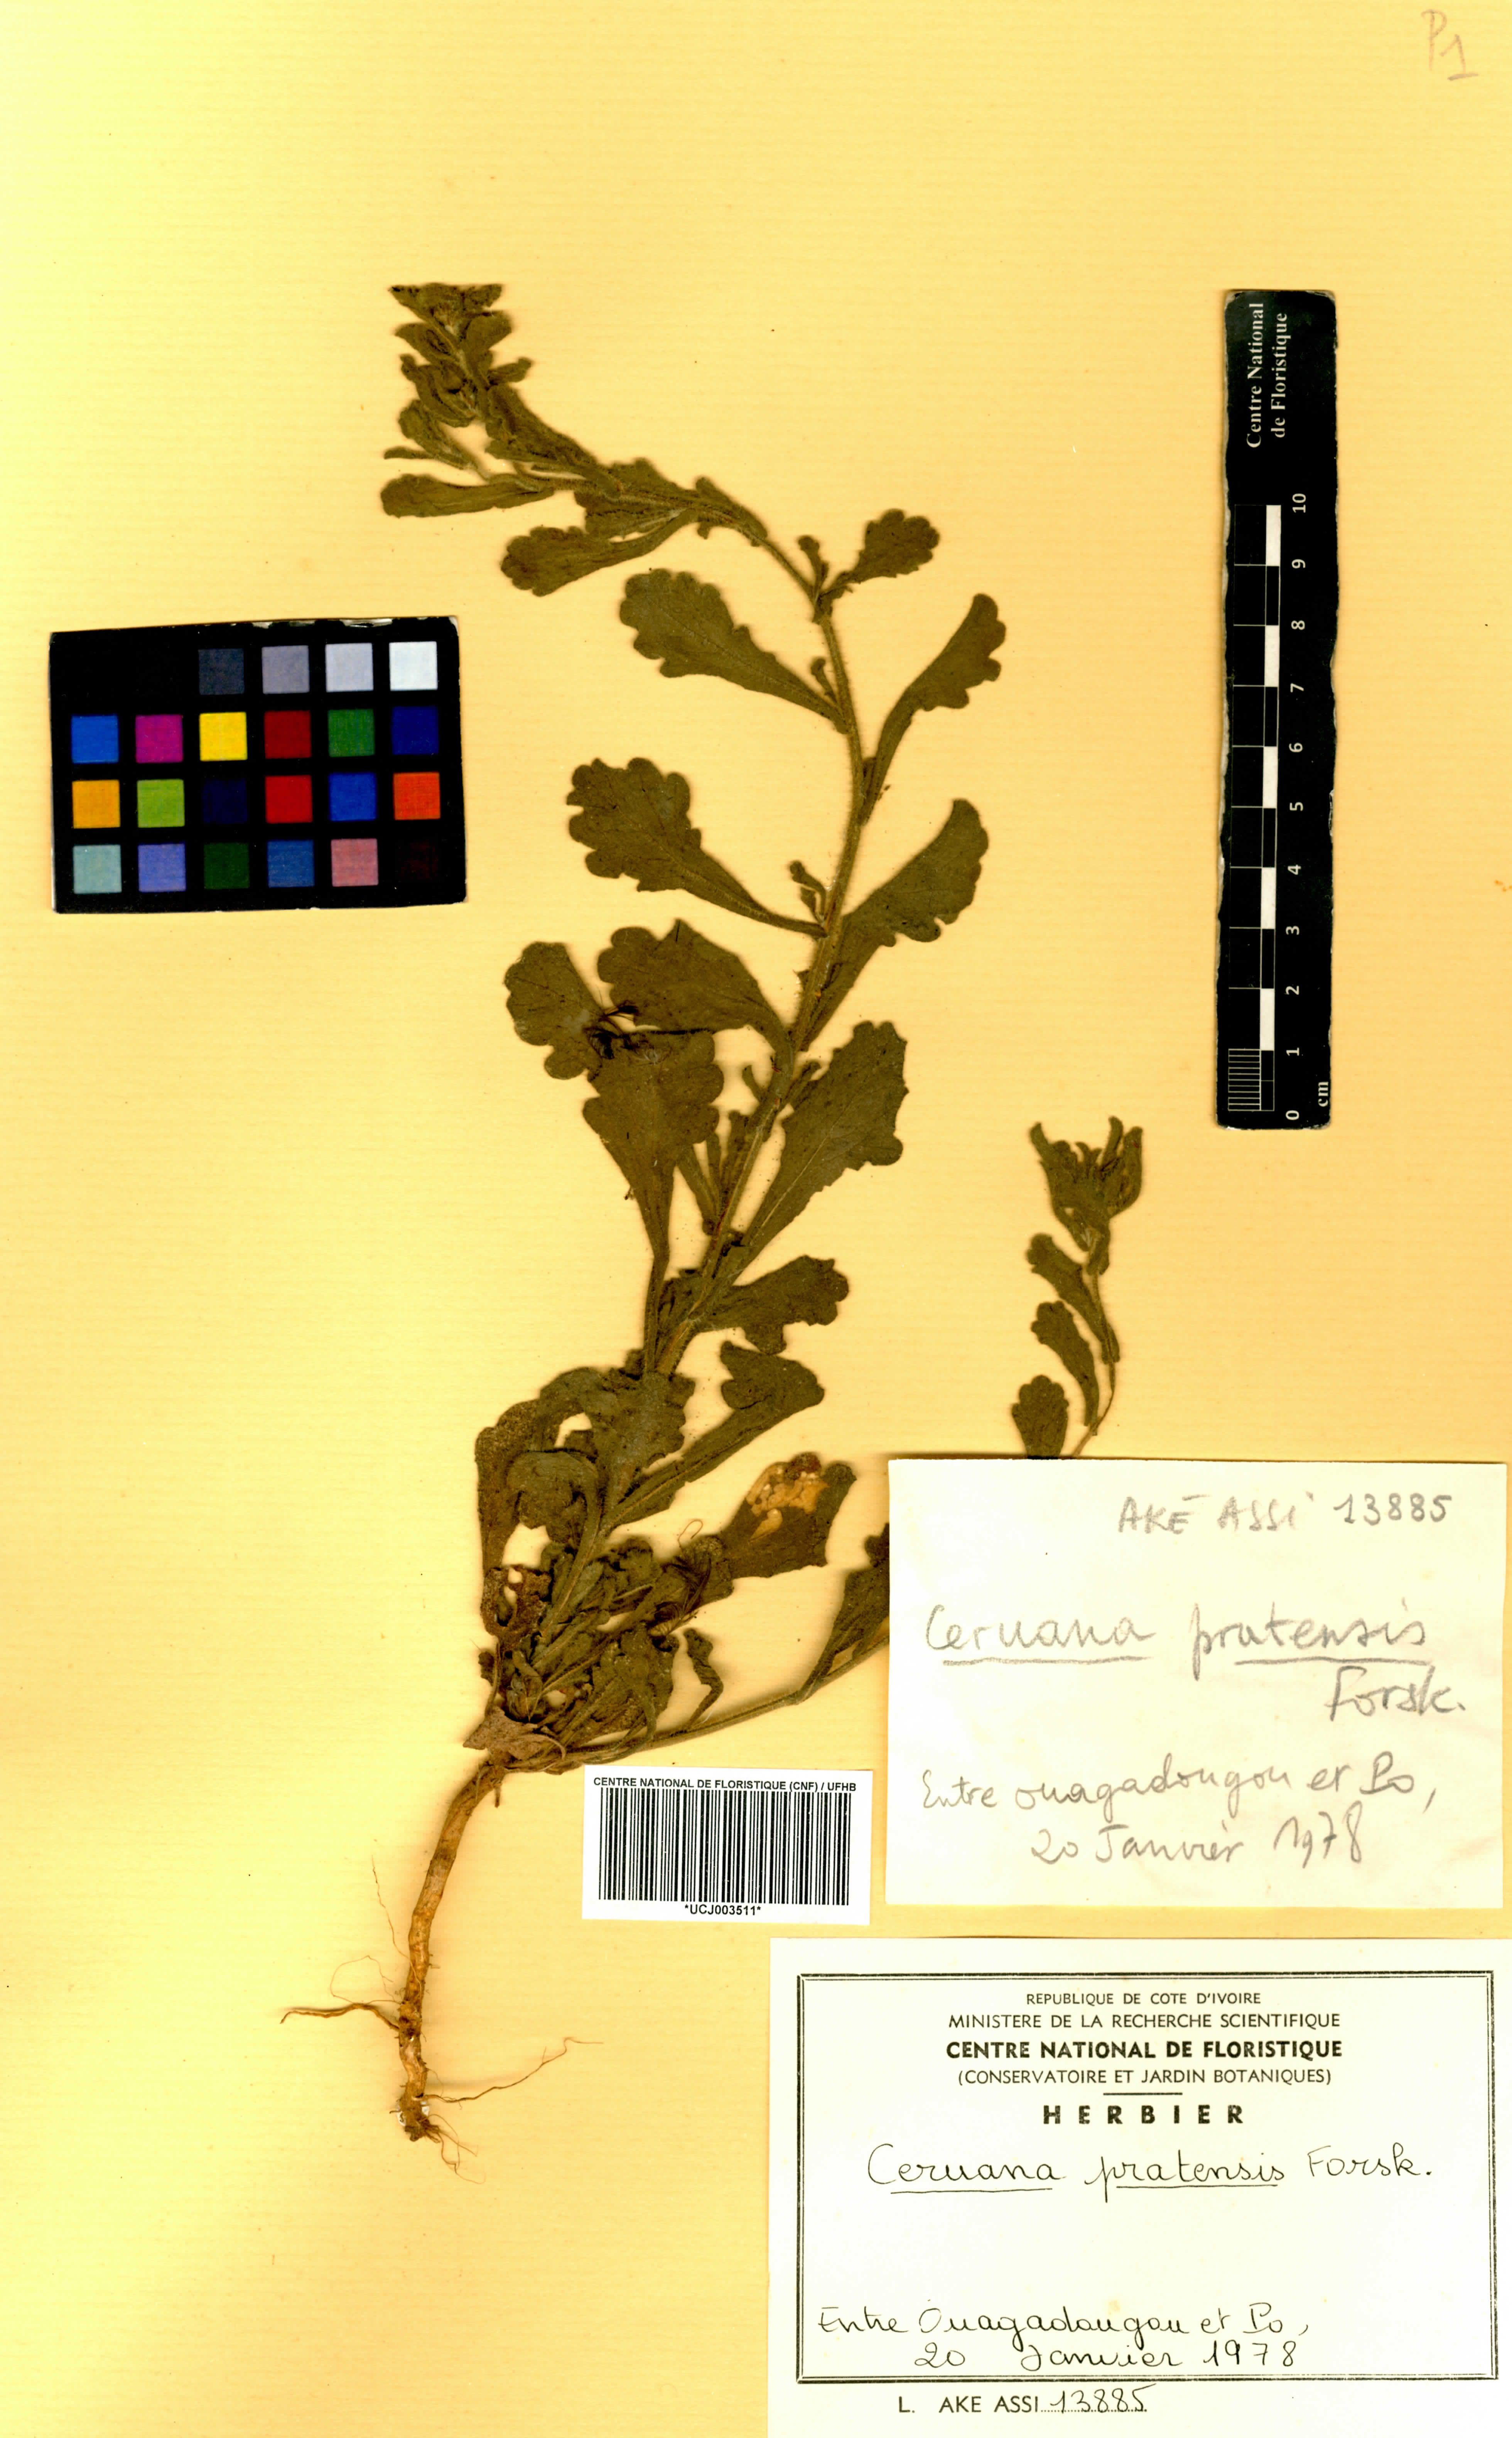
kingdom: Plantae
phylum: Tracheophyta
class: Magnoliopsida
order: Asterales
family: Asteraceae
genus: Ceruana
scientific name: Ceruana pratensis
